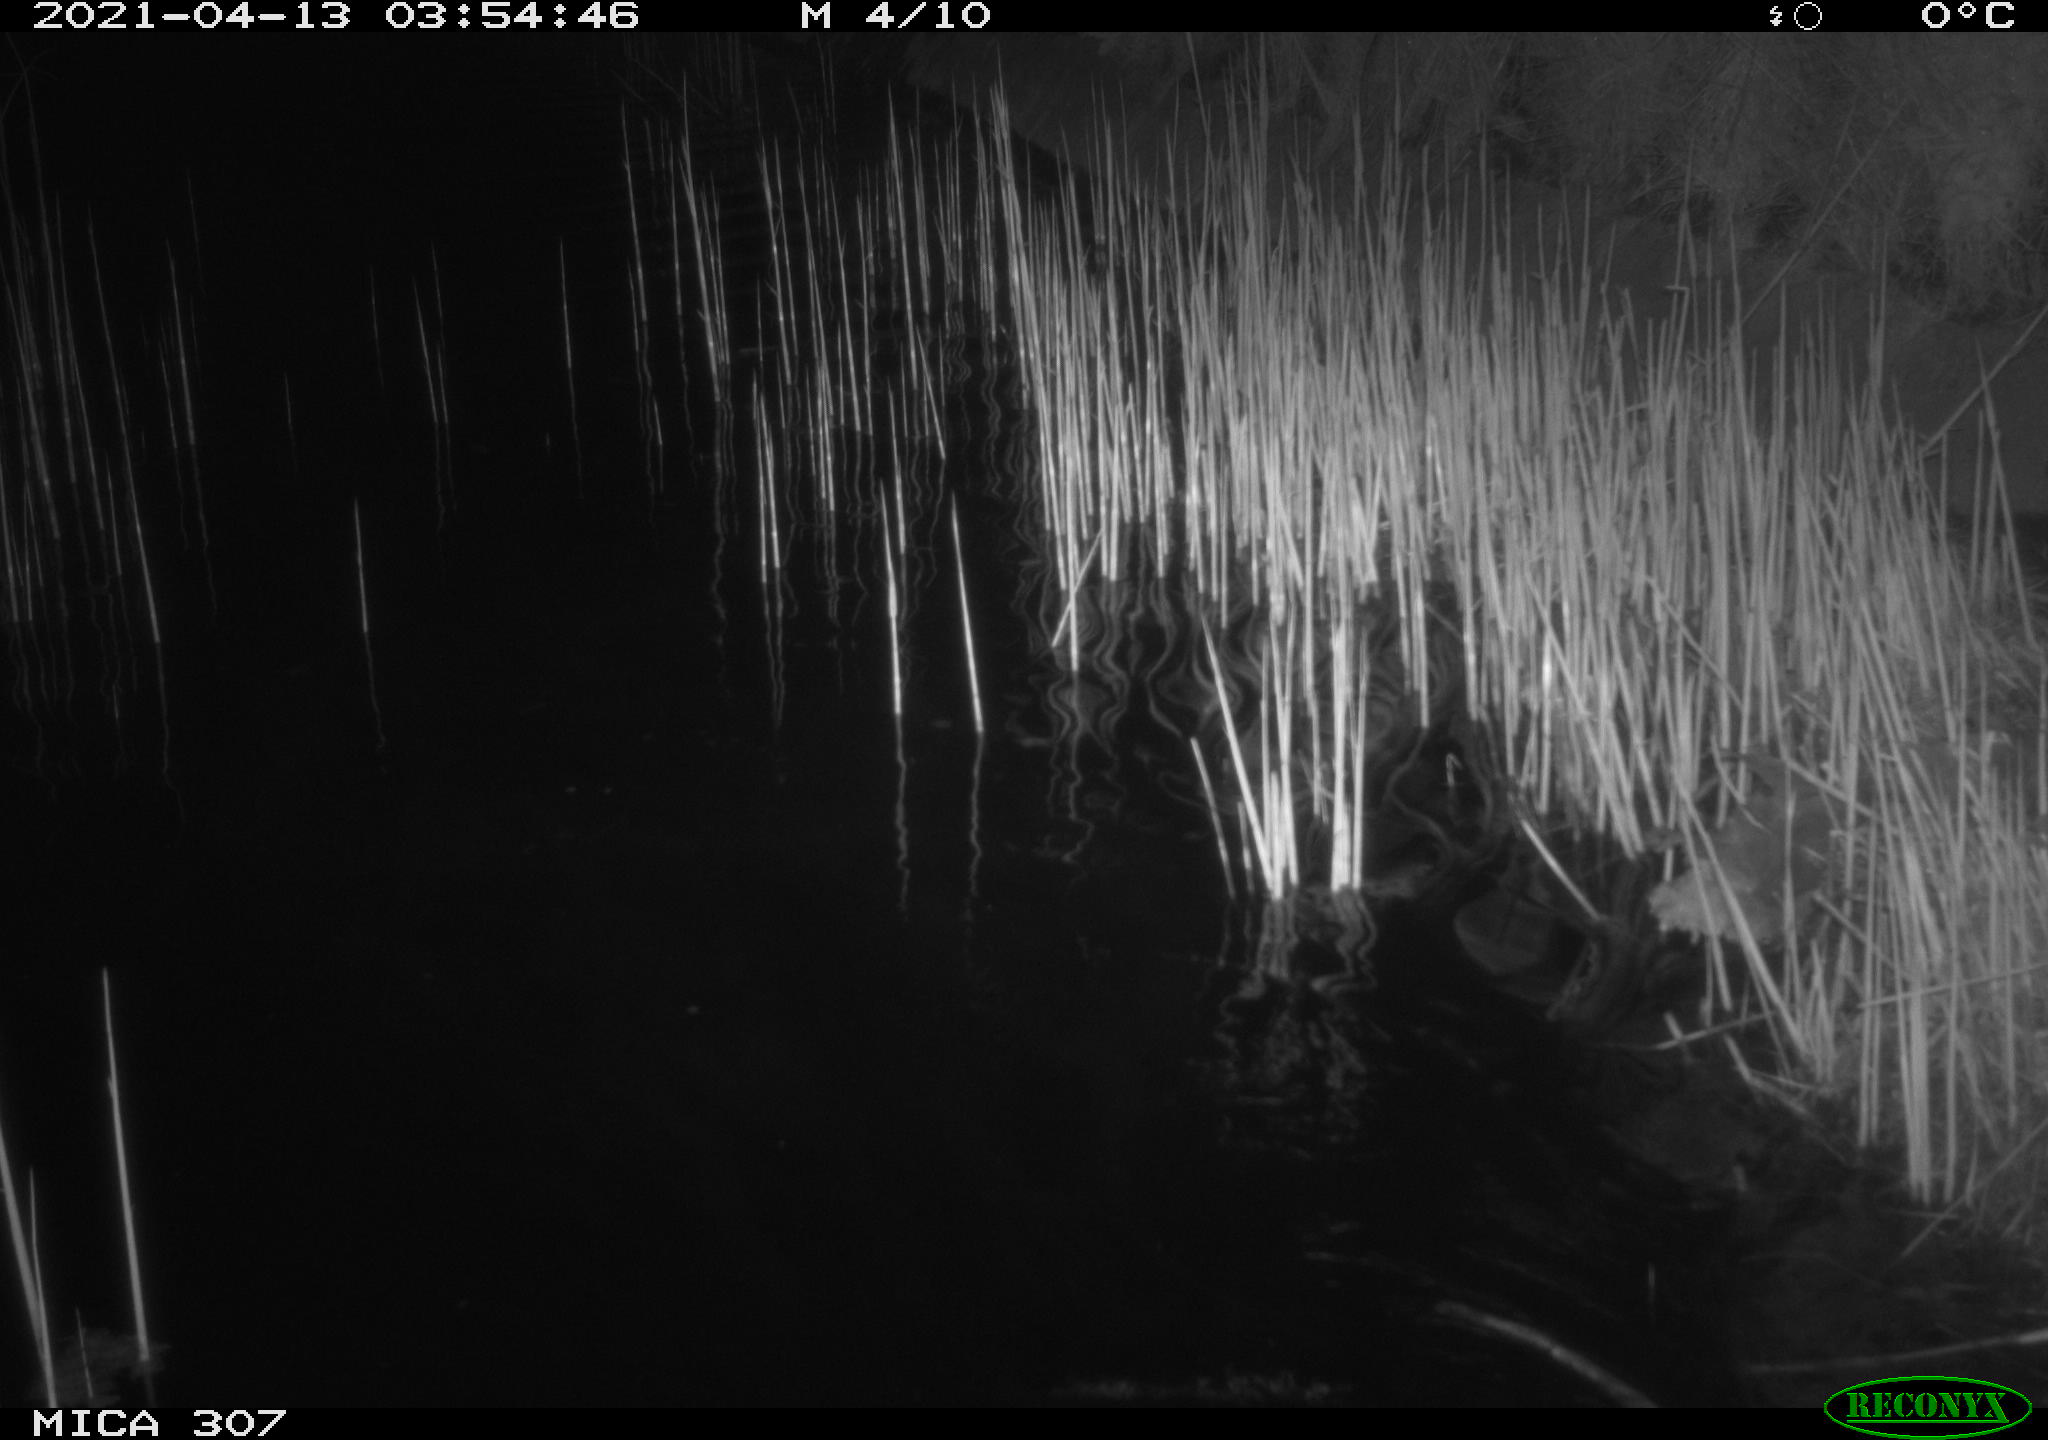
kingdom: Animalia
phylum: Chordata
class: Mammalia
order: Rodentia
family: Cricetidae
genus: Ondatra
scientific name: Ondatra zibethicus
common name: Muskrat
